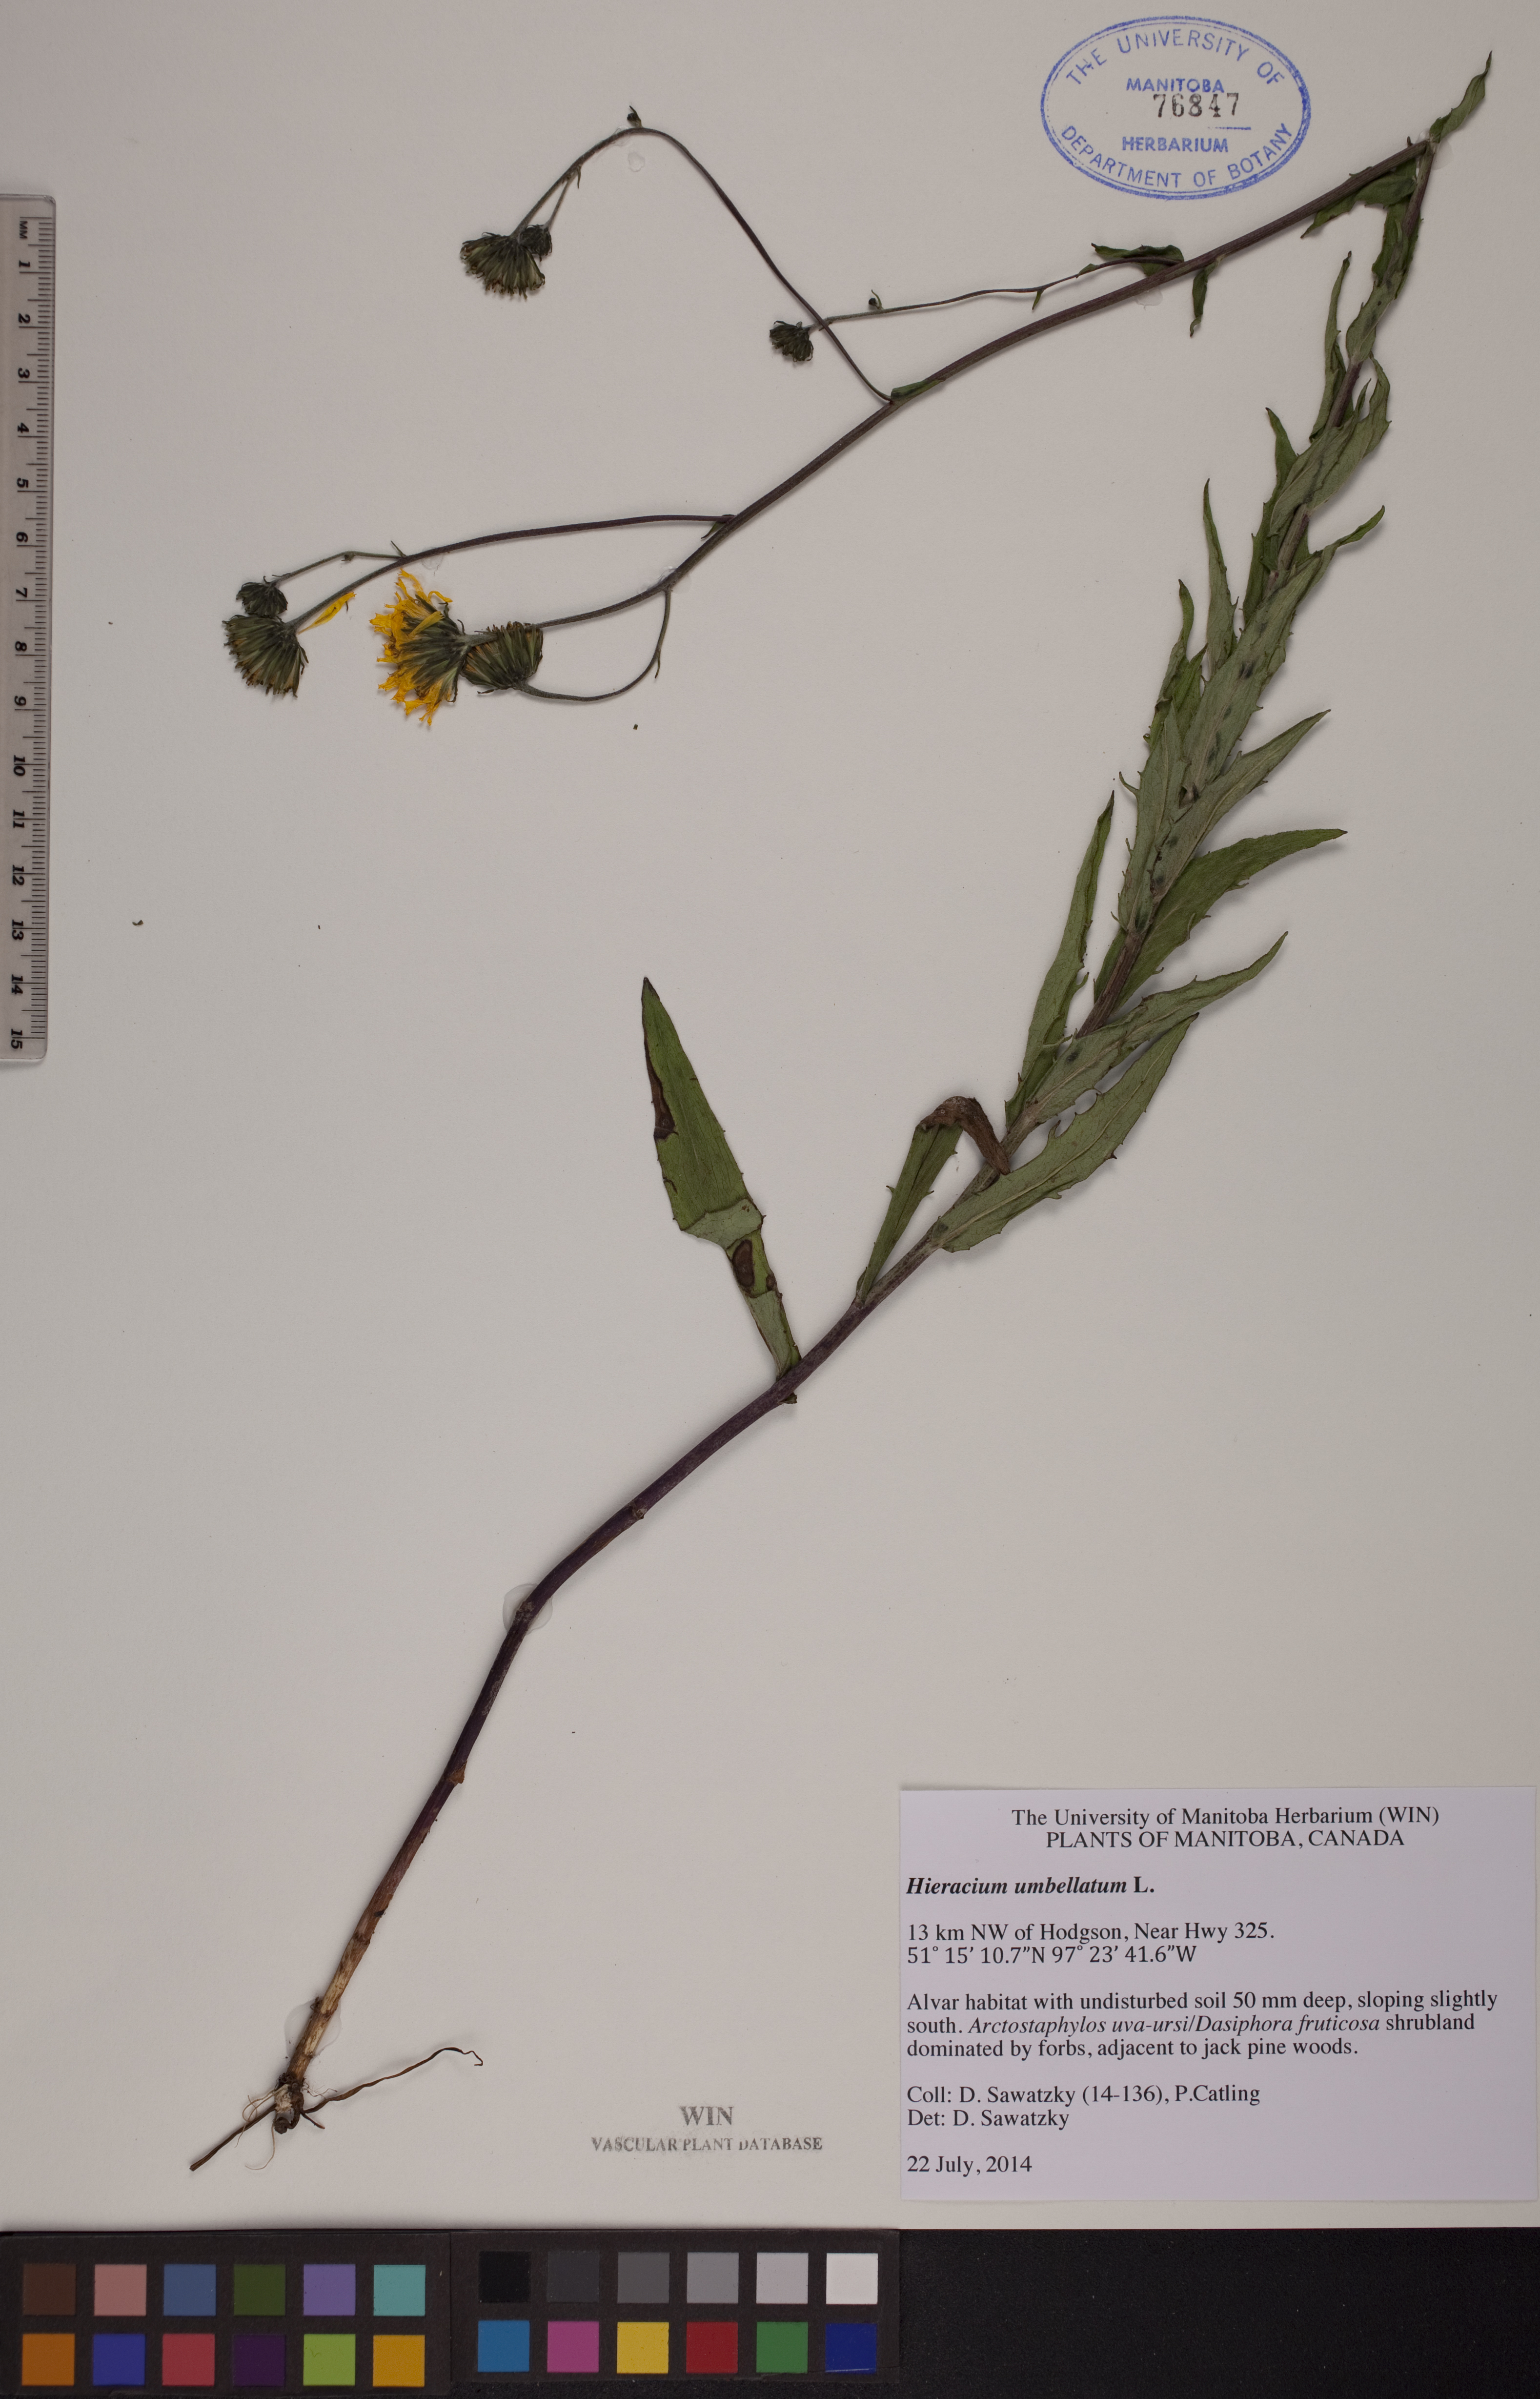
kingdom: Plantae
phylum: Tracheophyta
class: Magnoliopsida
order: Asterales
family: Asteraceae
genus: Hieracium
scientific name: Hieracium umbellatum
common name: Northern hawkweed
